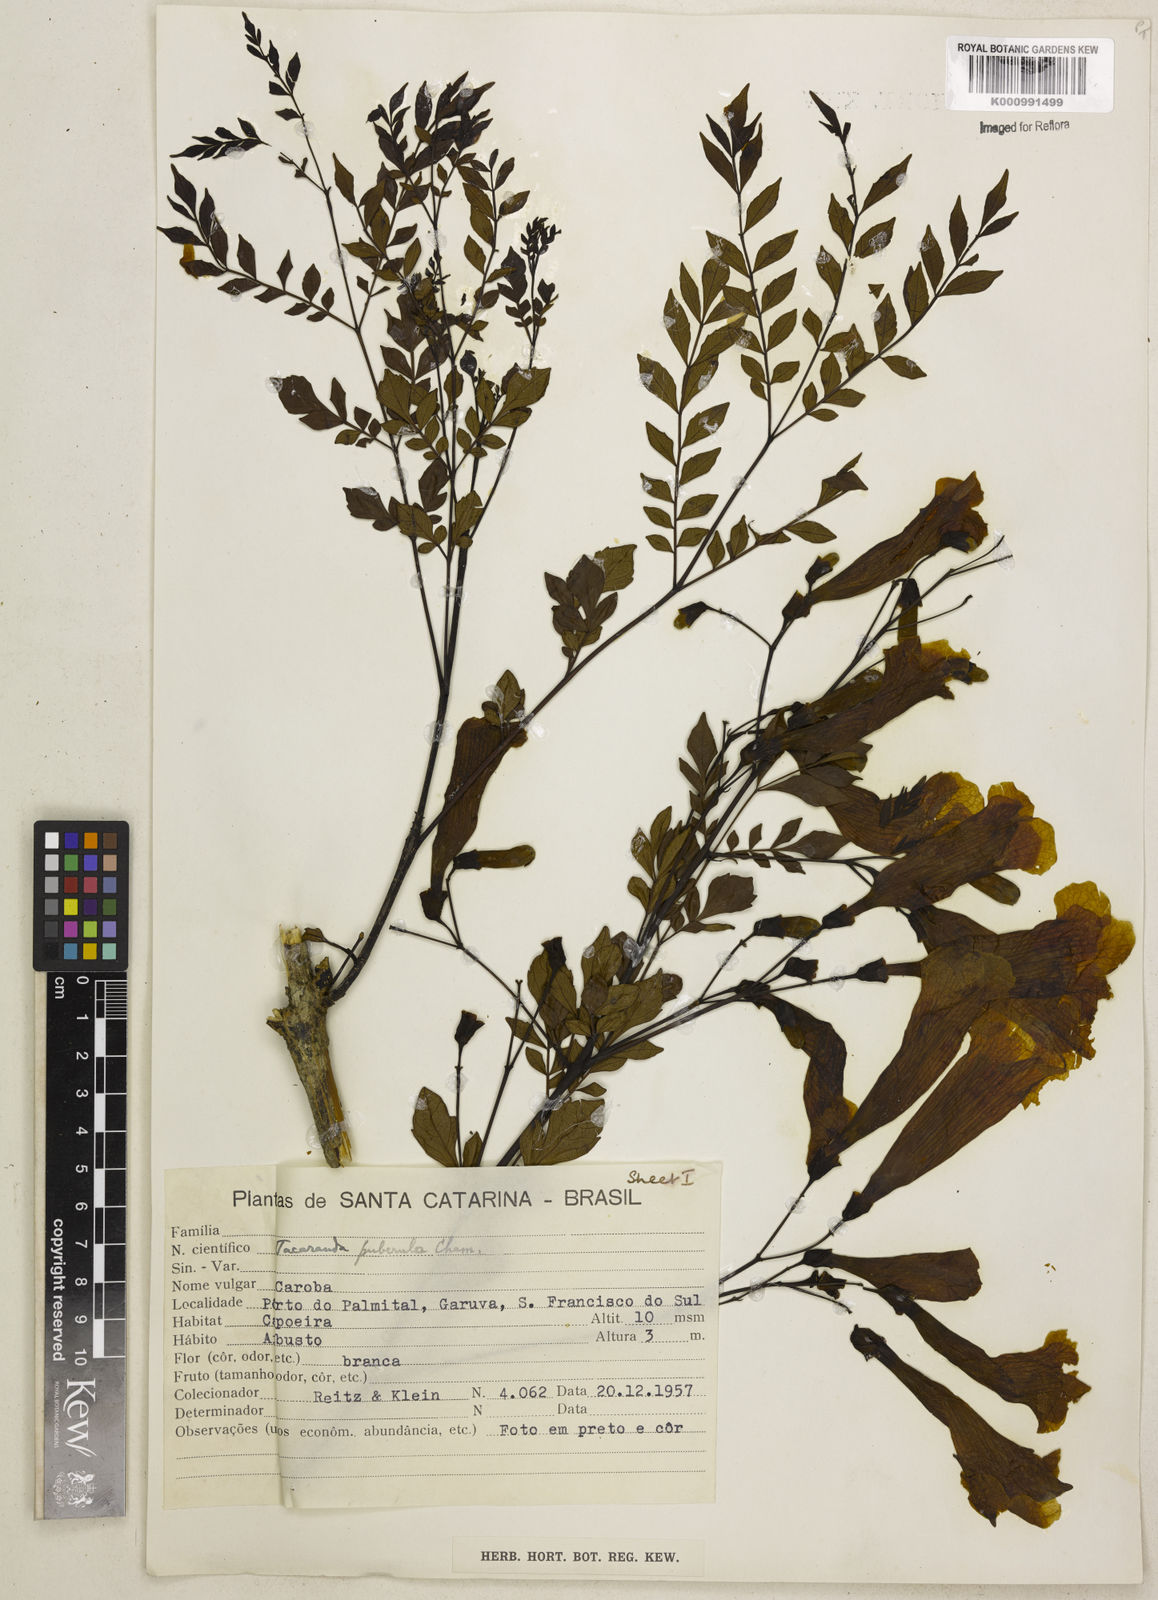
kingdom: Plantae
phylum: Tracheophyta
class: Magnoliopsida
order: Lamiales
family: Bignoniaceae
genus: Jacaranda
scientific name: Jacaranda puberula
